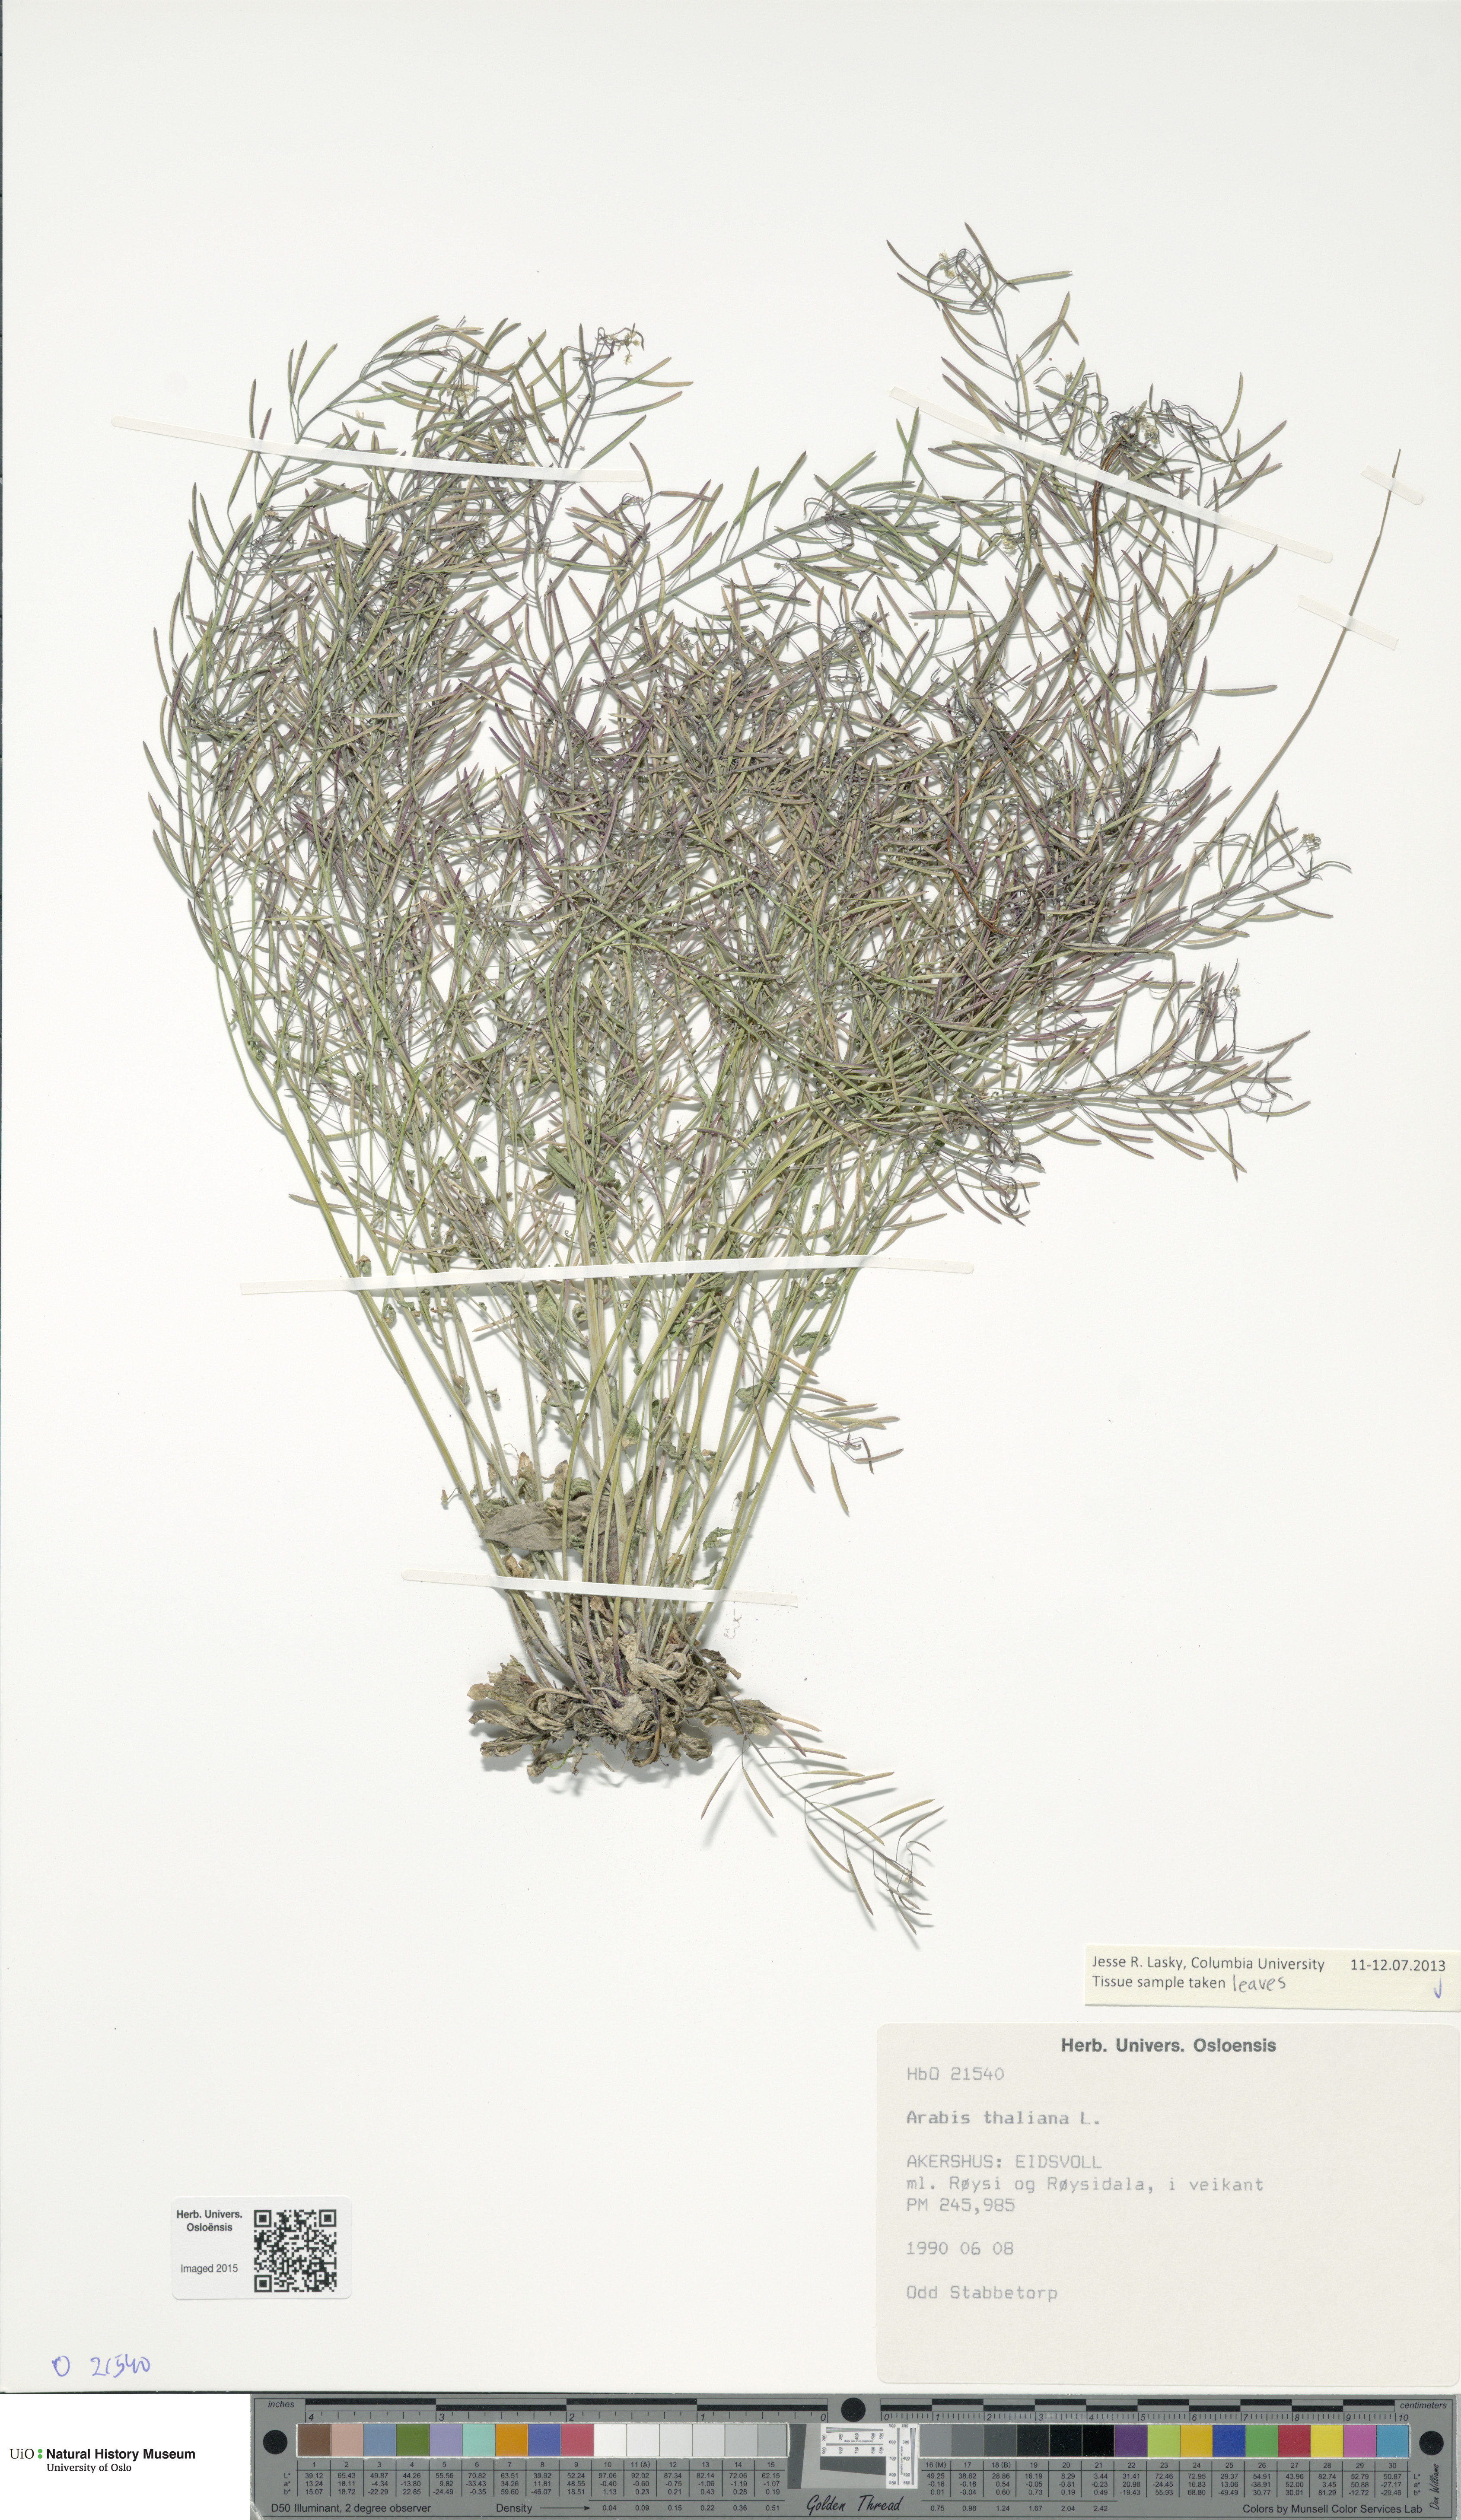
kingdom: Plantae
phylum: Tracheophyta
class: Magnoliopsida
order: Brassicales
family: Brassicaceae
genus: Arabidopsis
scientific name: Arabidopsis thaliana
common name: Thale cress
